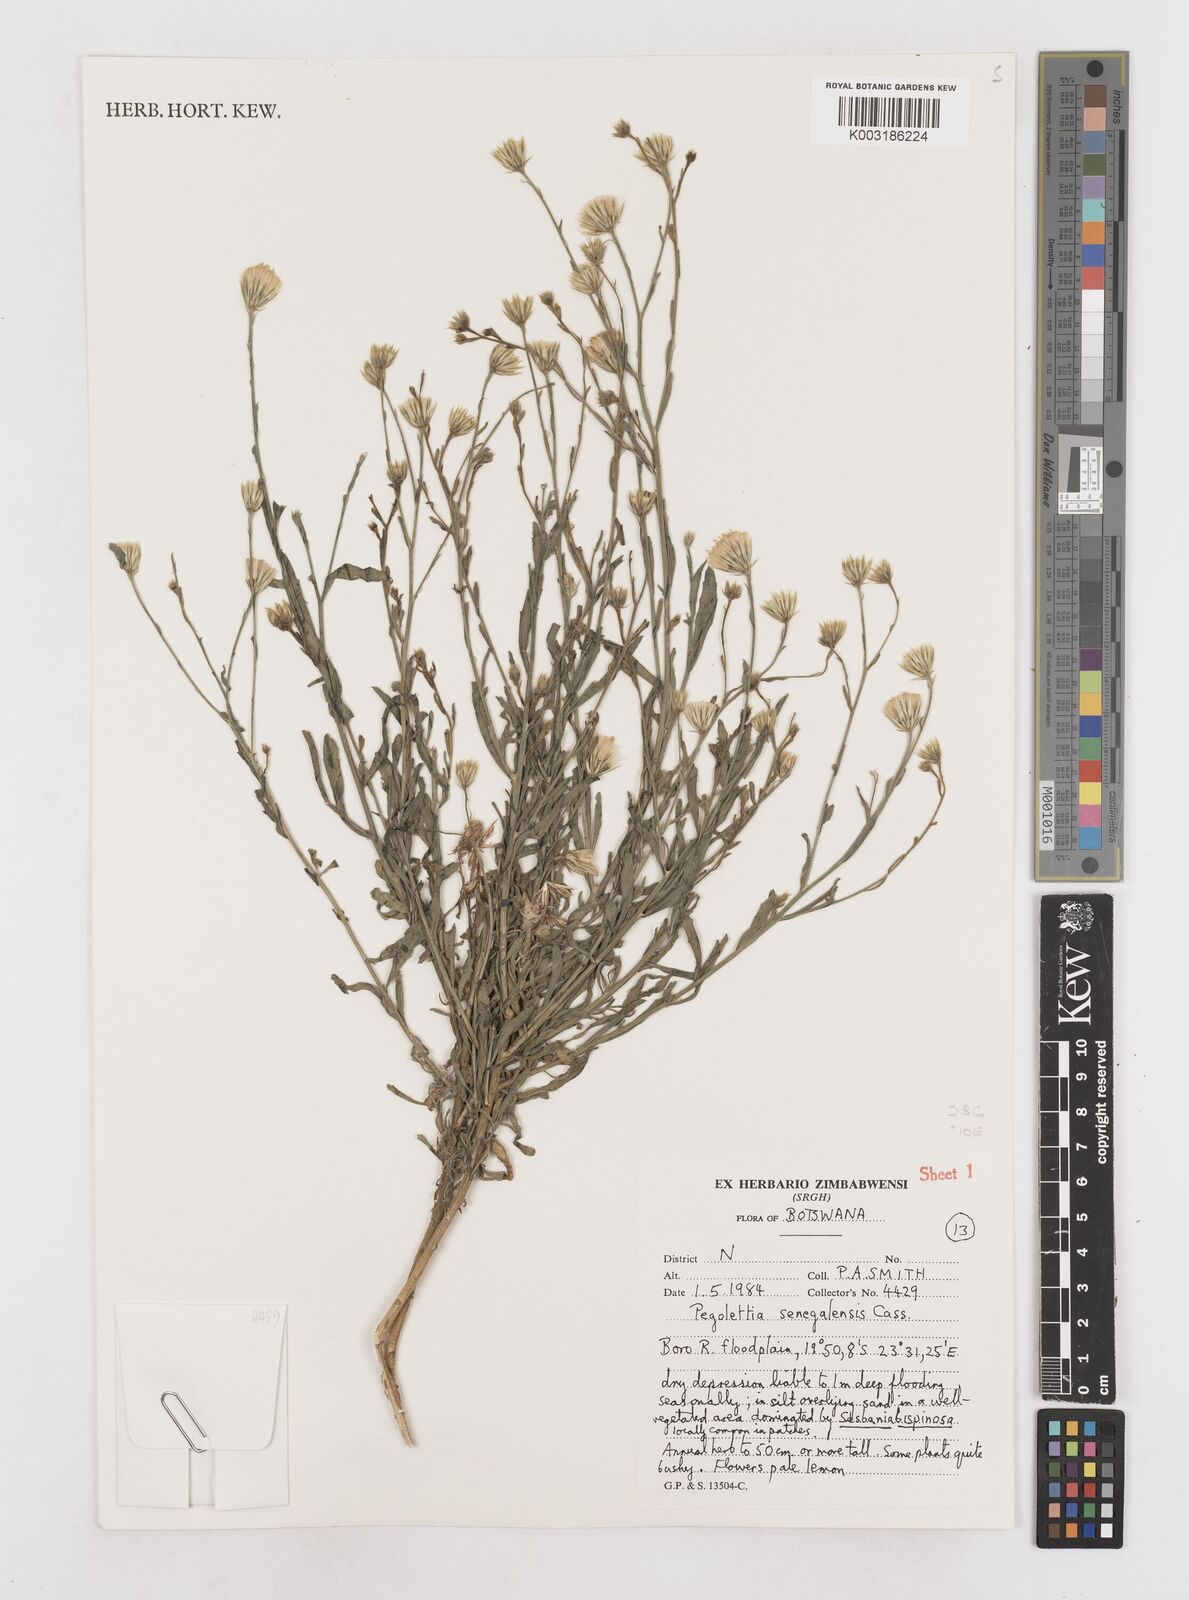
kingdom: Plantae
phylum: Tracheophyta
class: Magnoliopsida
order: Asterales
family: Asteraceae
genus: Pegolettia
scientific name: Pegolettia senegalensis
